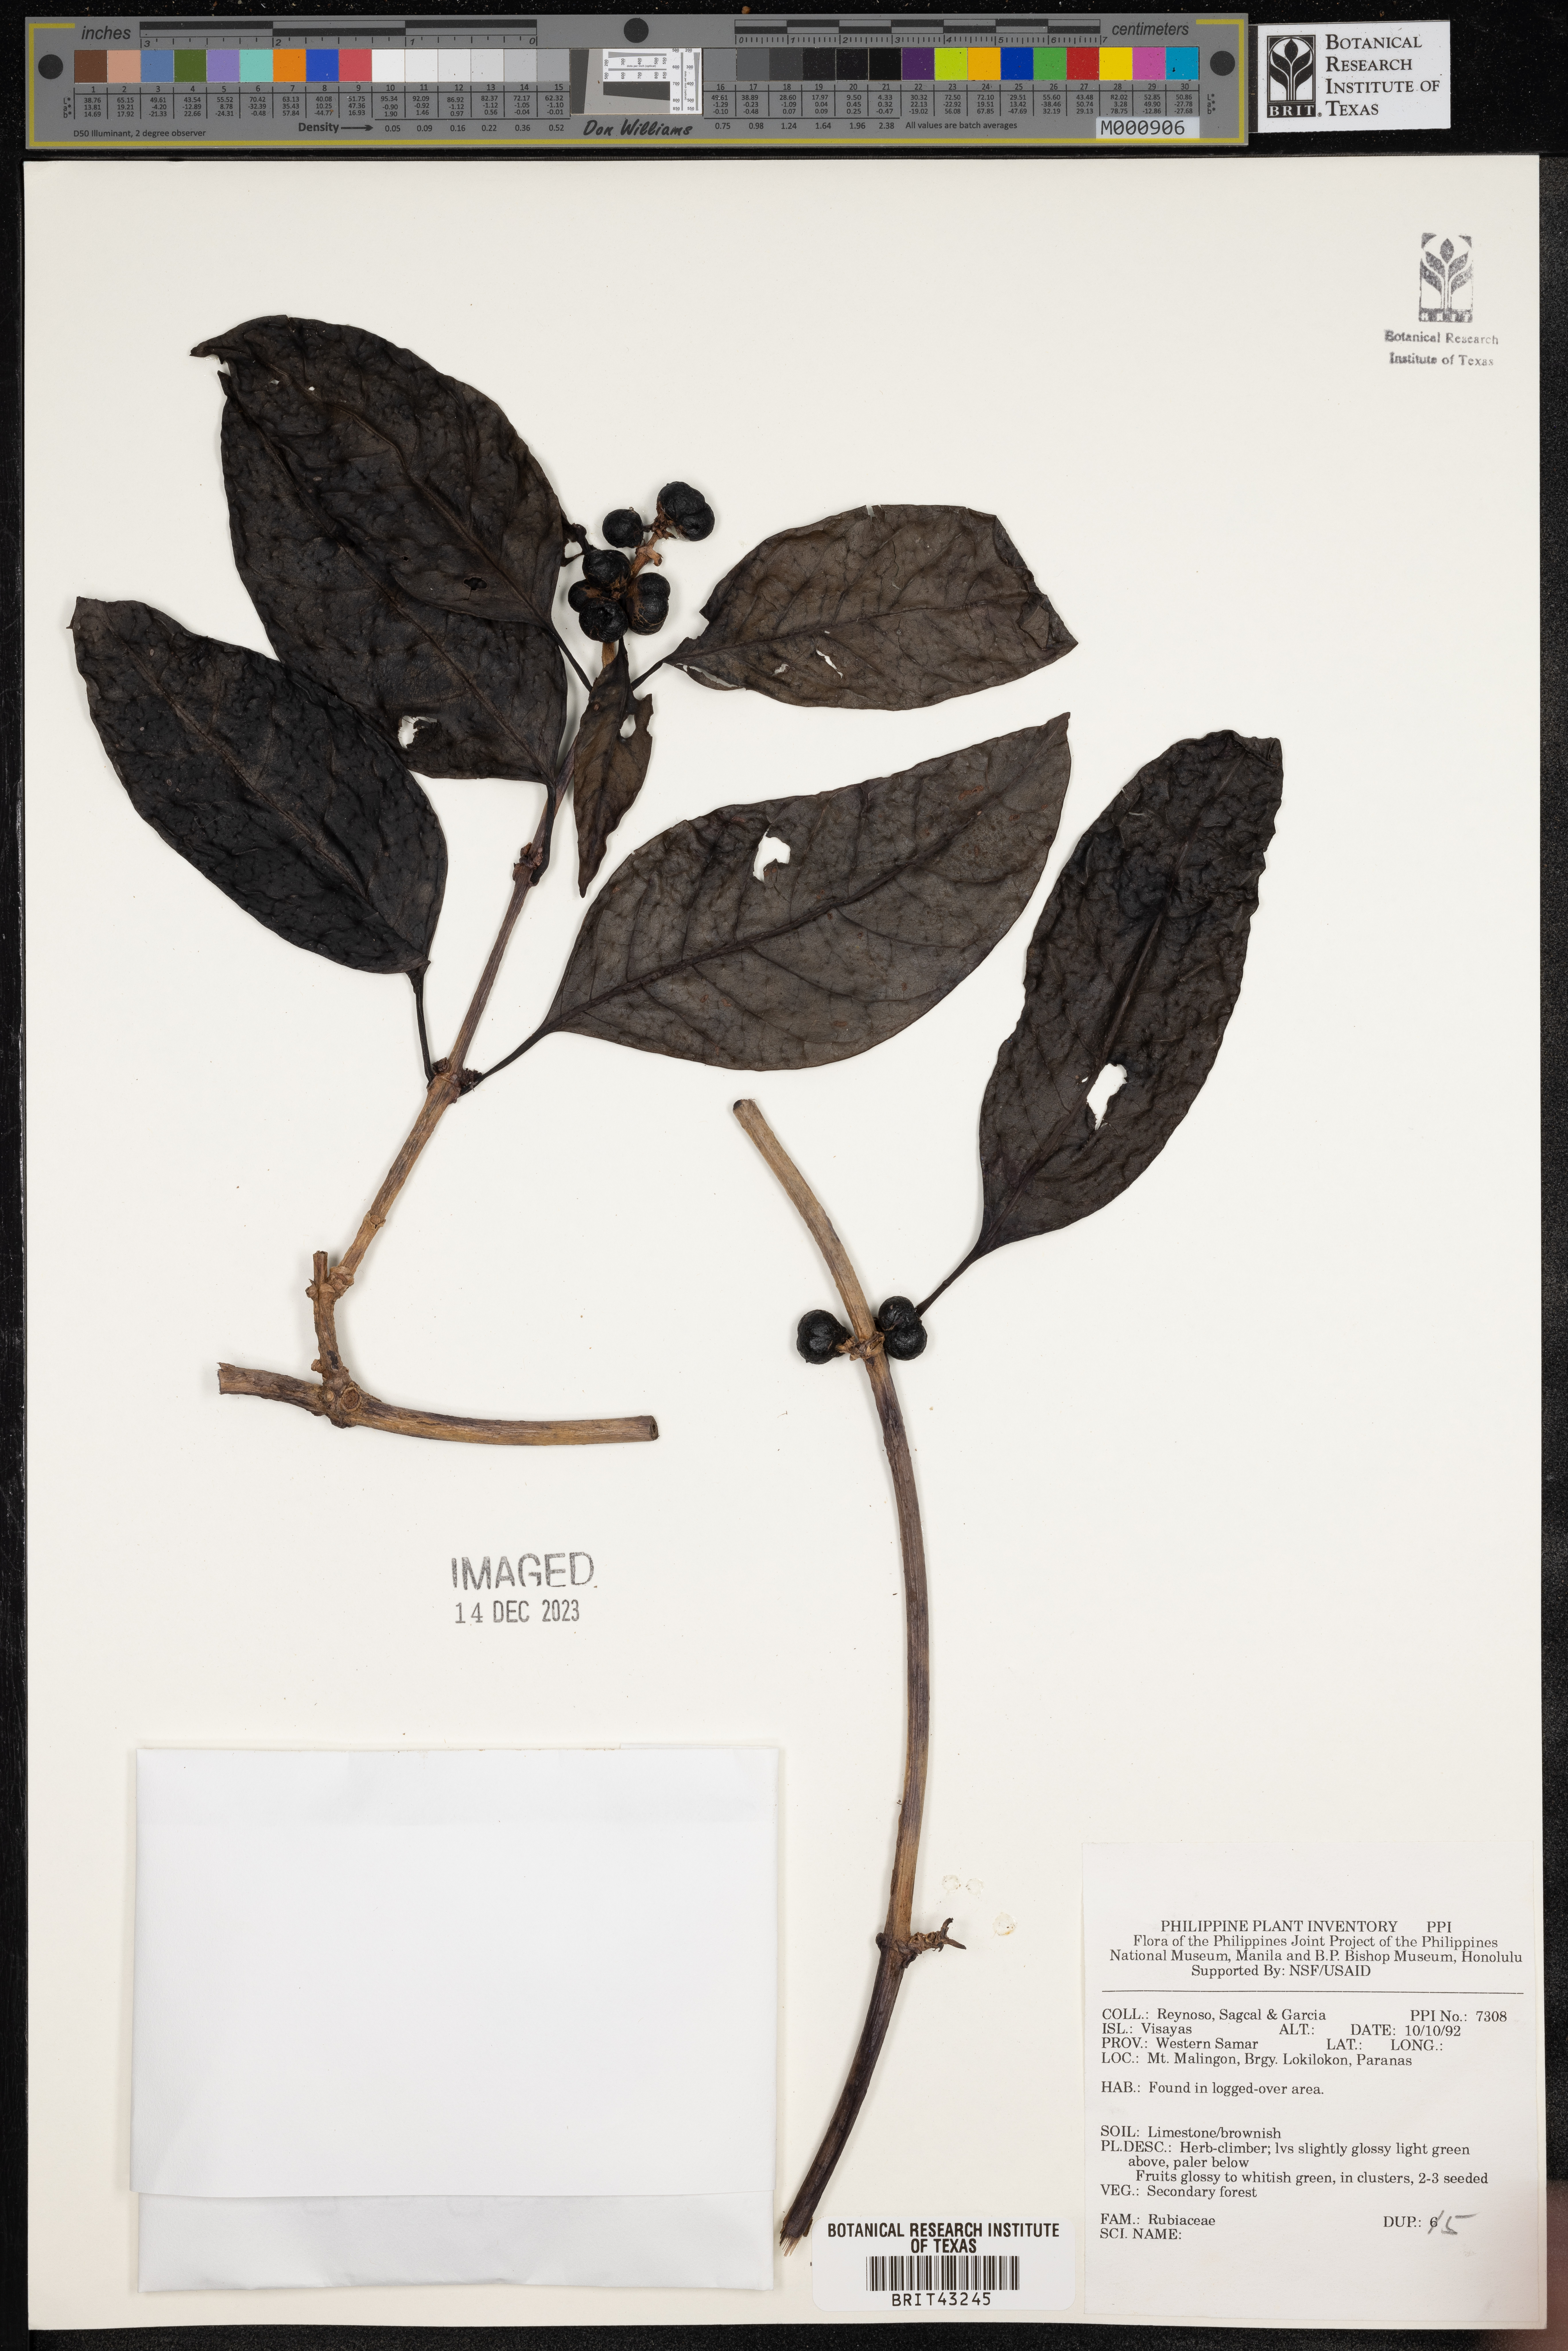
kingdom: Plantae
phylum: Tracheophyta
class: Magnoliopsida
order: Gentianales
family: Rubiaceae
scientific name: Rubiaceae
